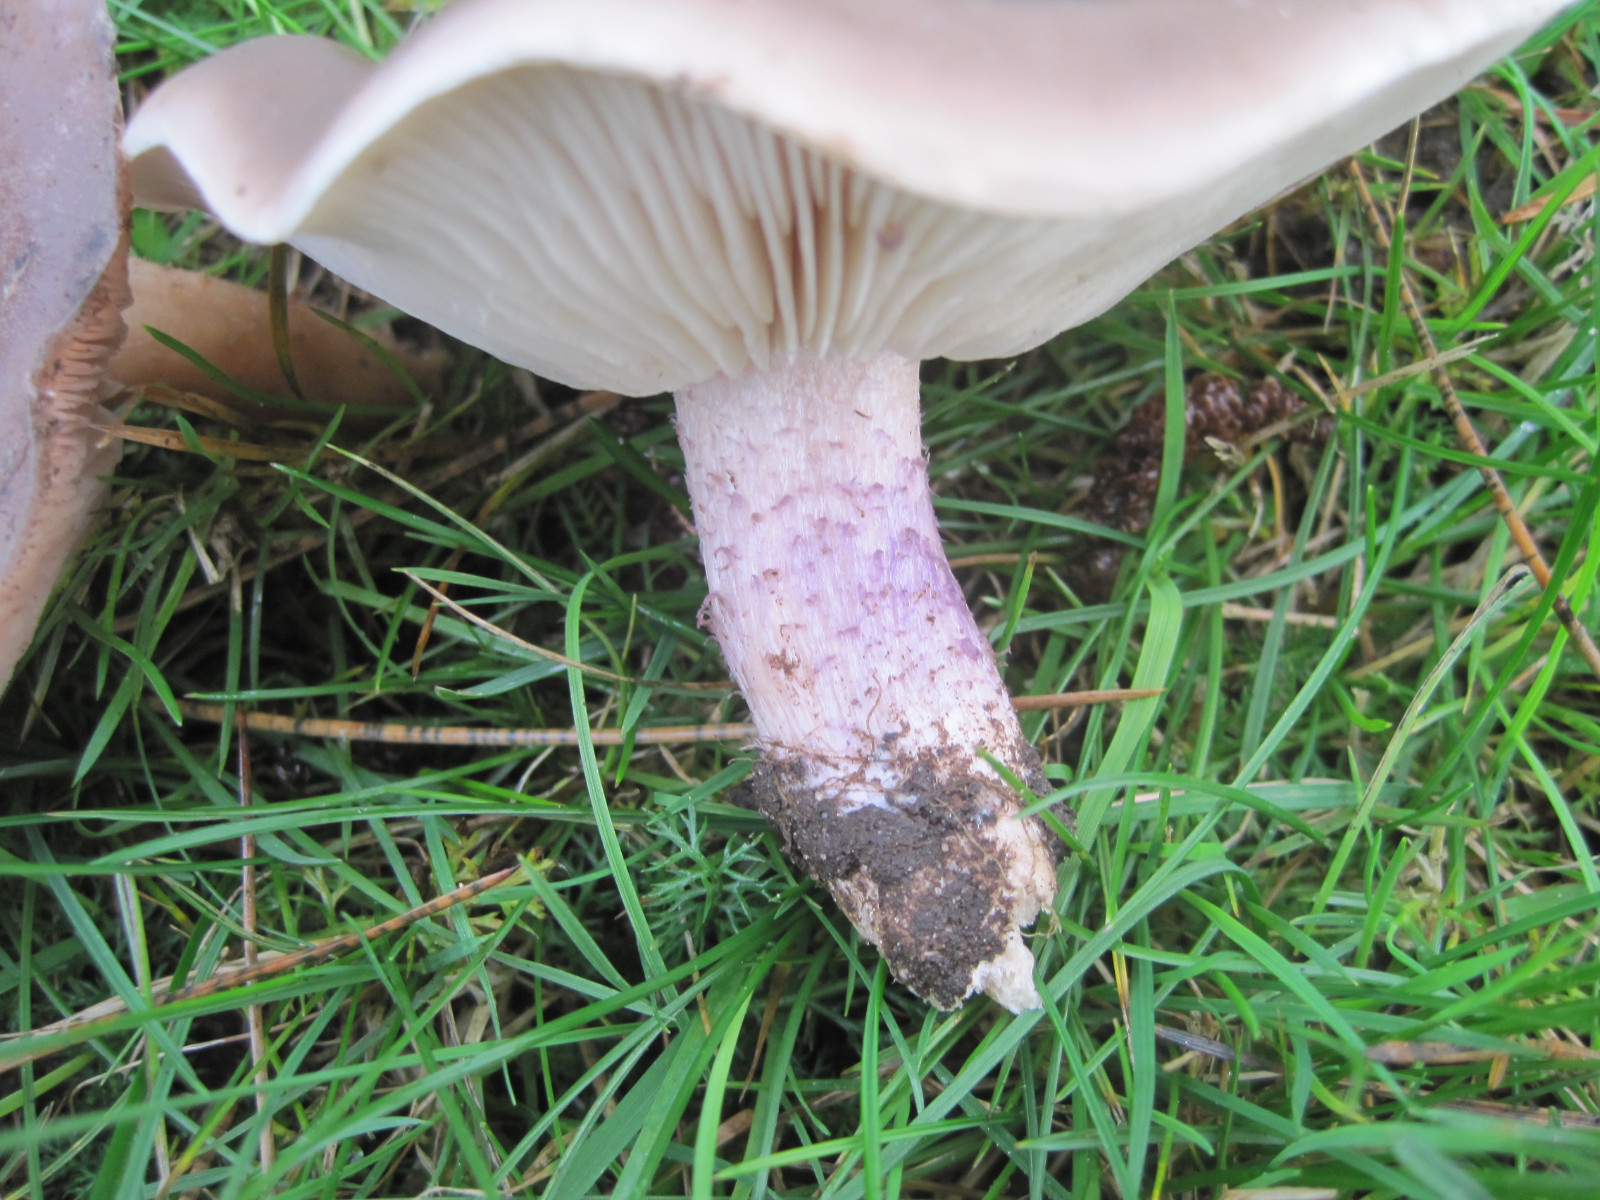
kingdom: Fungi
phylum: Basidiomycota
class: Agaricomycetes
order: Agaricales
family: Tricholomataceae
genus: Lepista
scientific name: Lepista personata
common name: bleg hekseringshat
